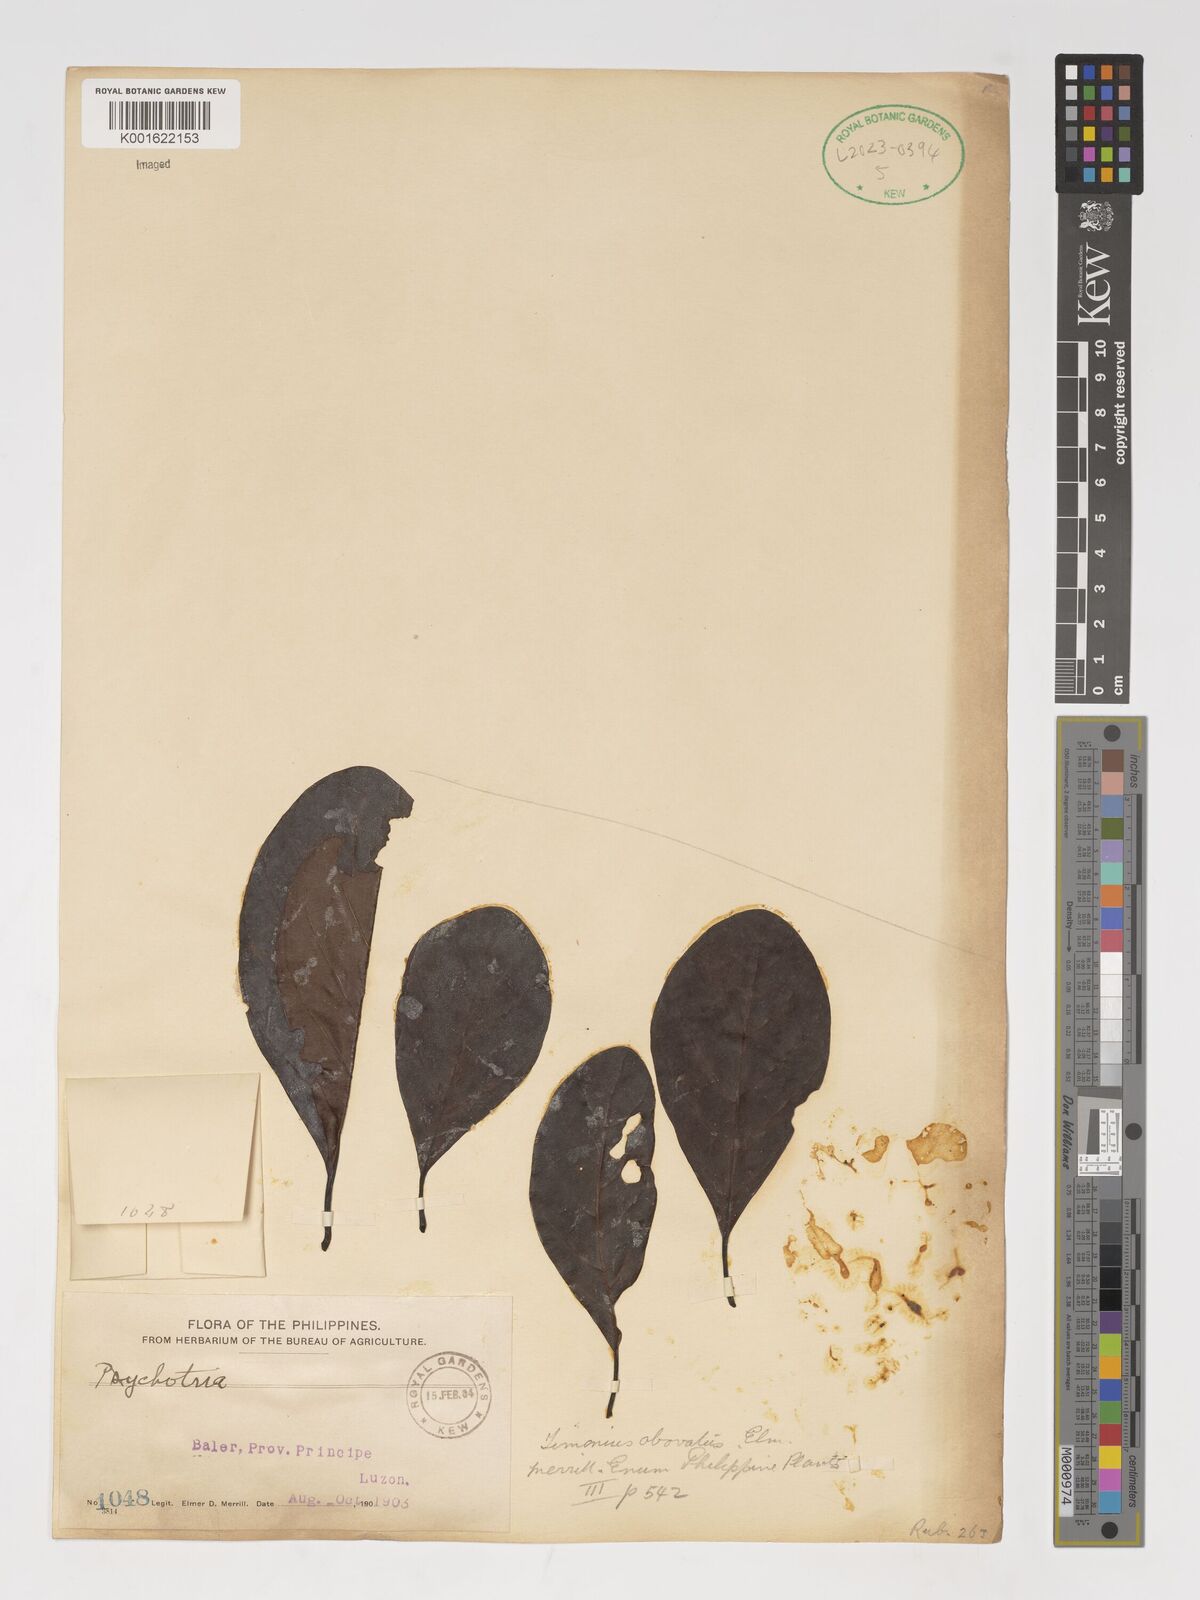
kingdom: Plantae
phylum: Tracheophyta
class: Magnoliopsida
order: Gentianales
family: Rubiaceae
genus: Psychotria
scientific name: Psychotria
